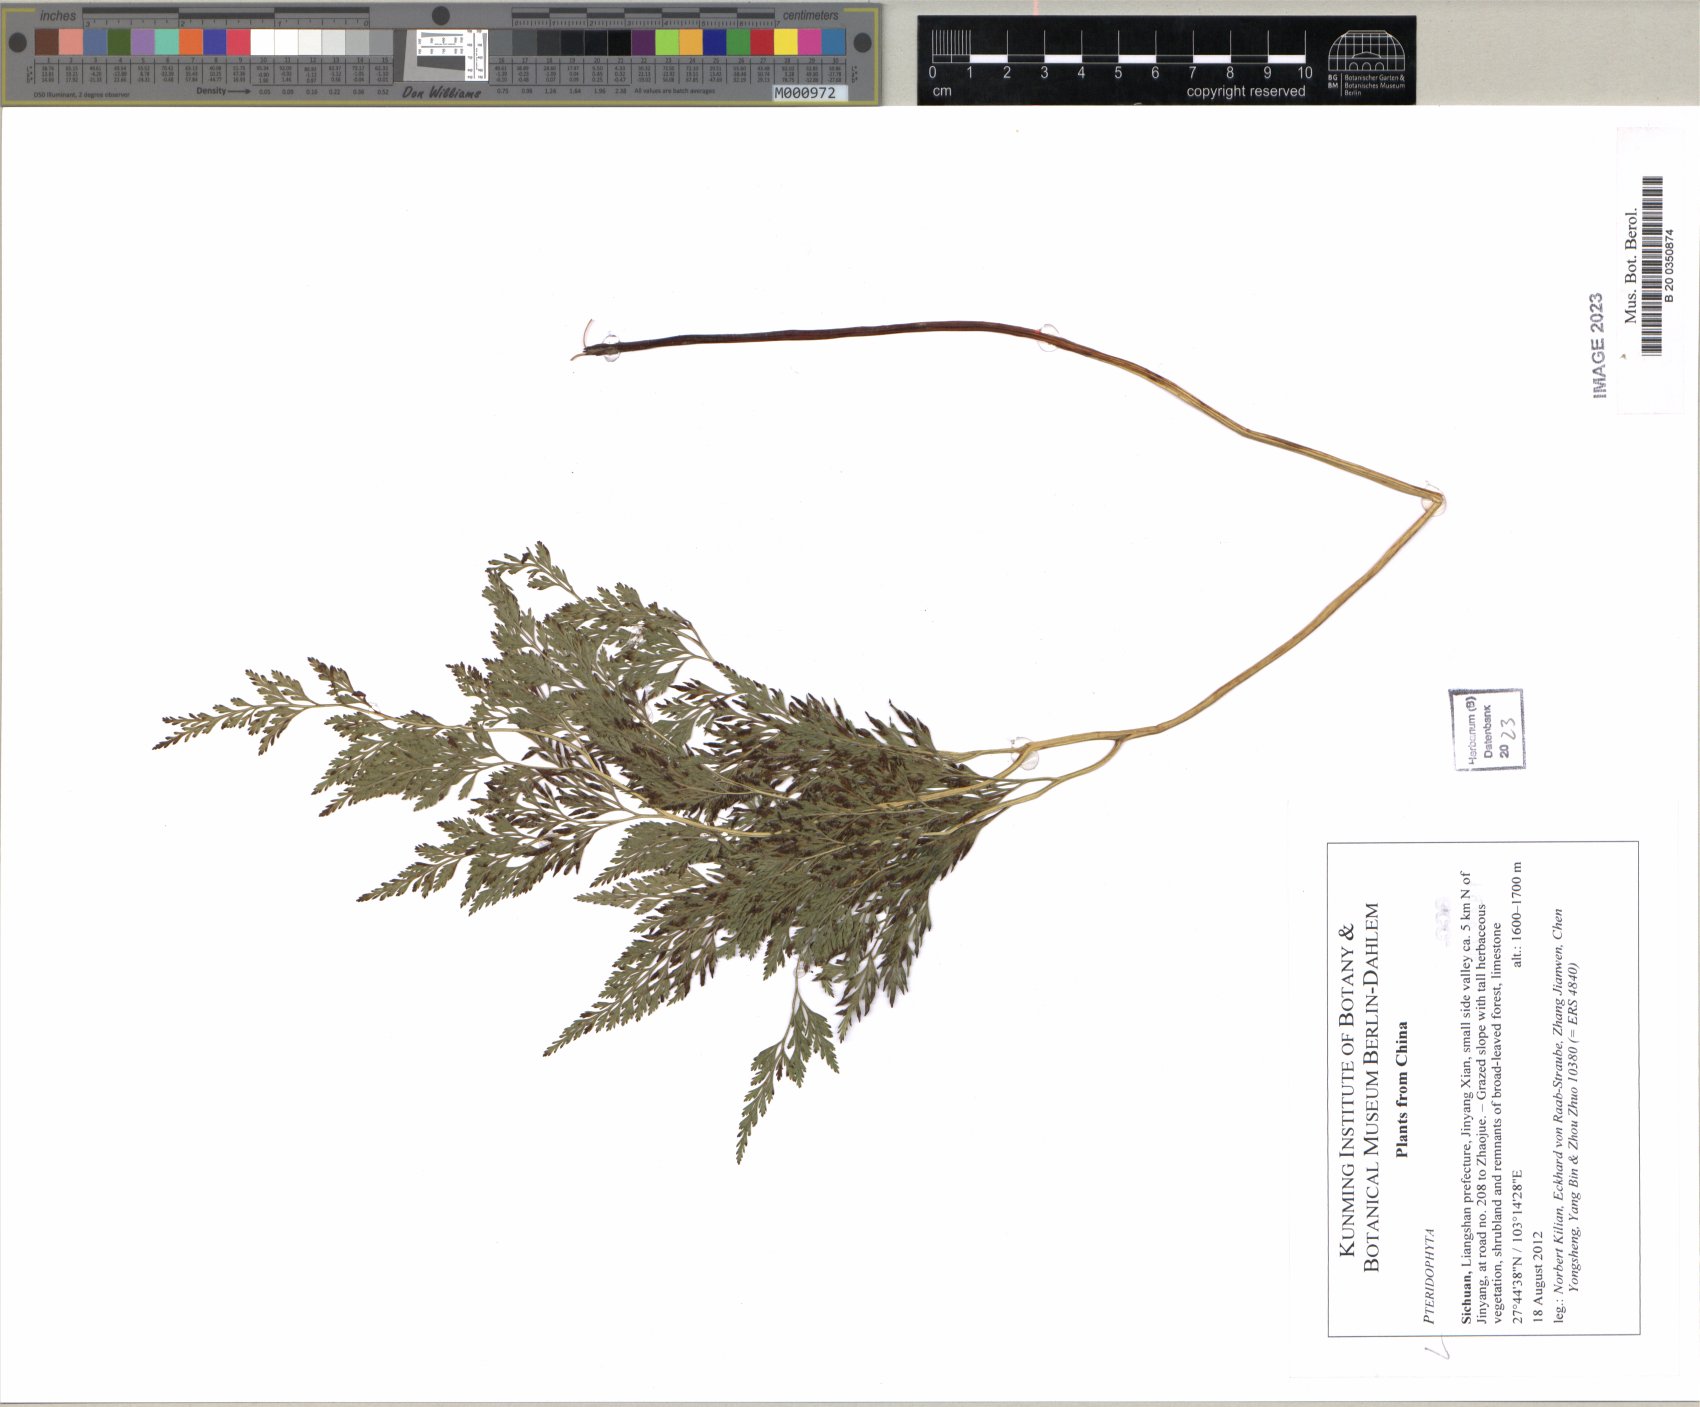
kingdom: Plantae
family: Pteridophyta
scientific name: Pteridophyta
